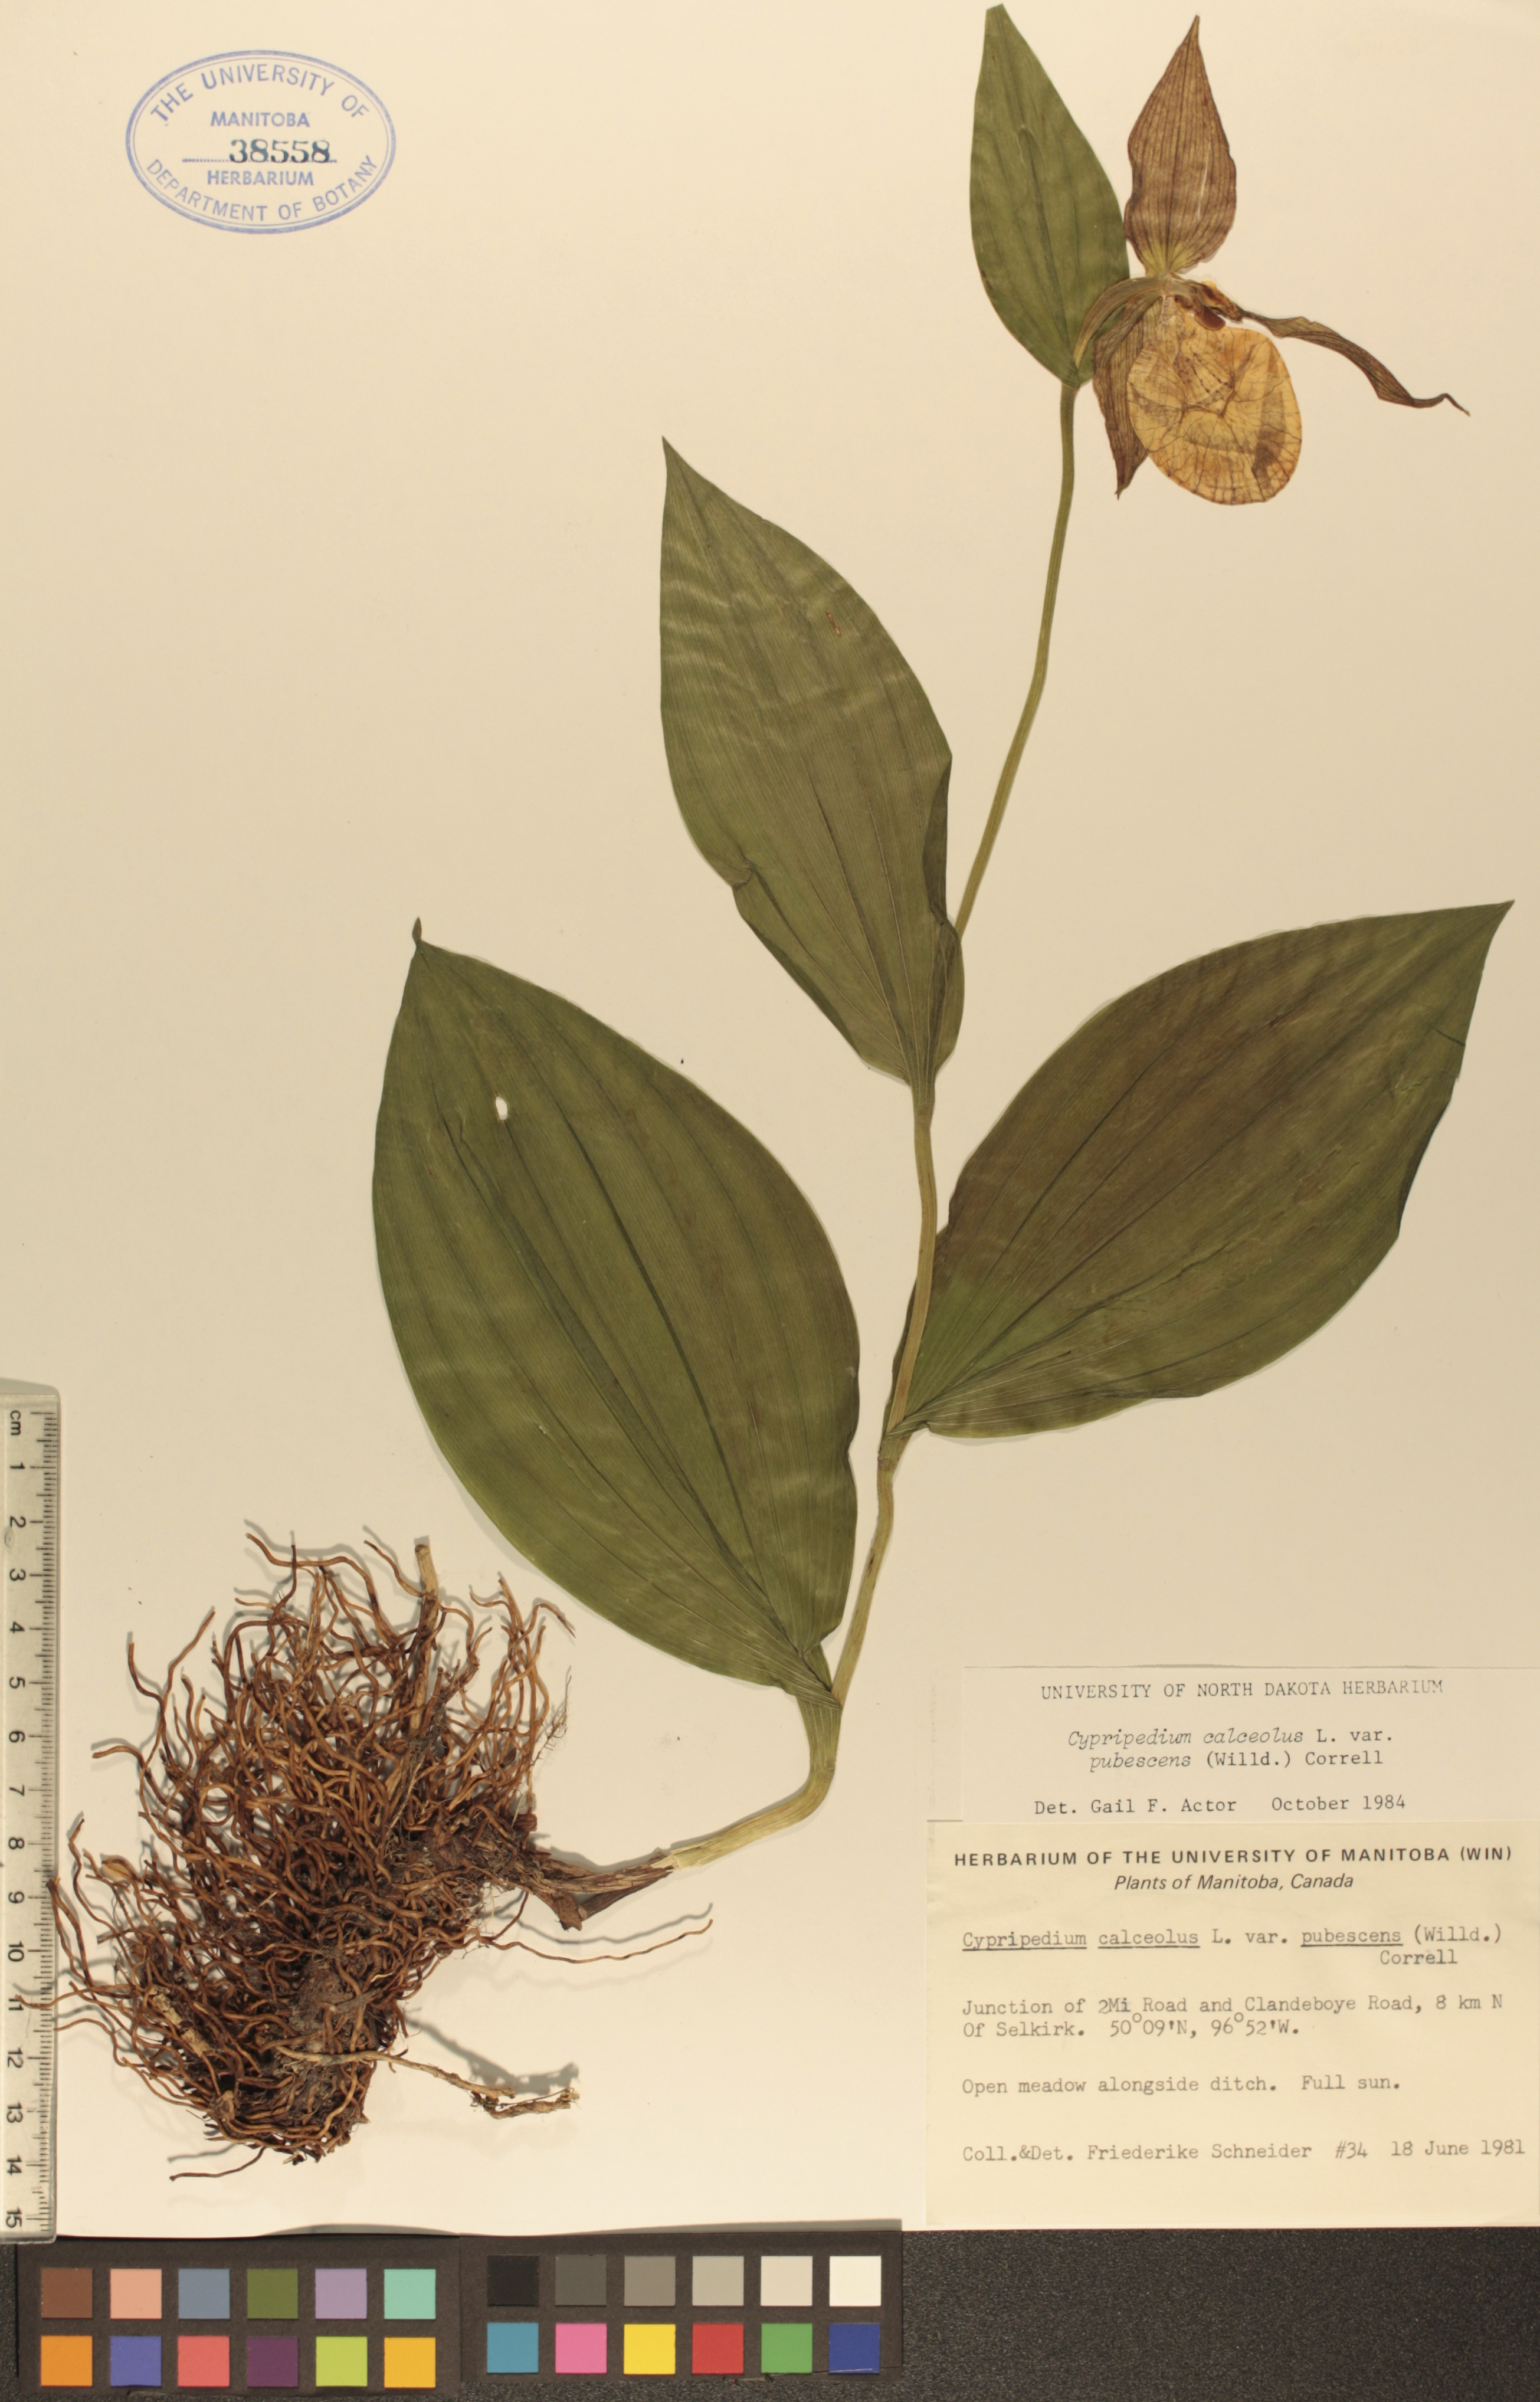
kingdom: Plantae
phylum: Tracheophyta
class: Liliopsida
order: Asparagales
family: Orchidaceae
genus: Cypripedium
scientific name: Cypripedium parviflorum
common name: American yellow lady's-slipper
